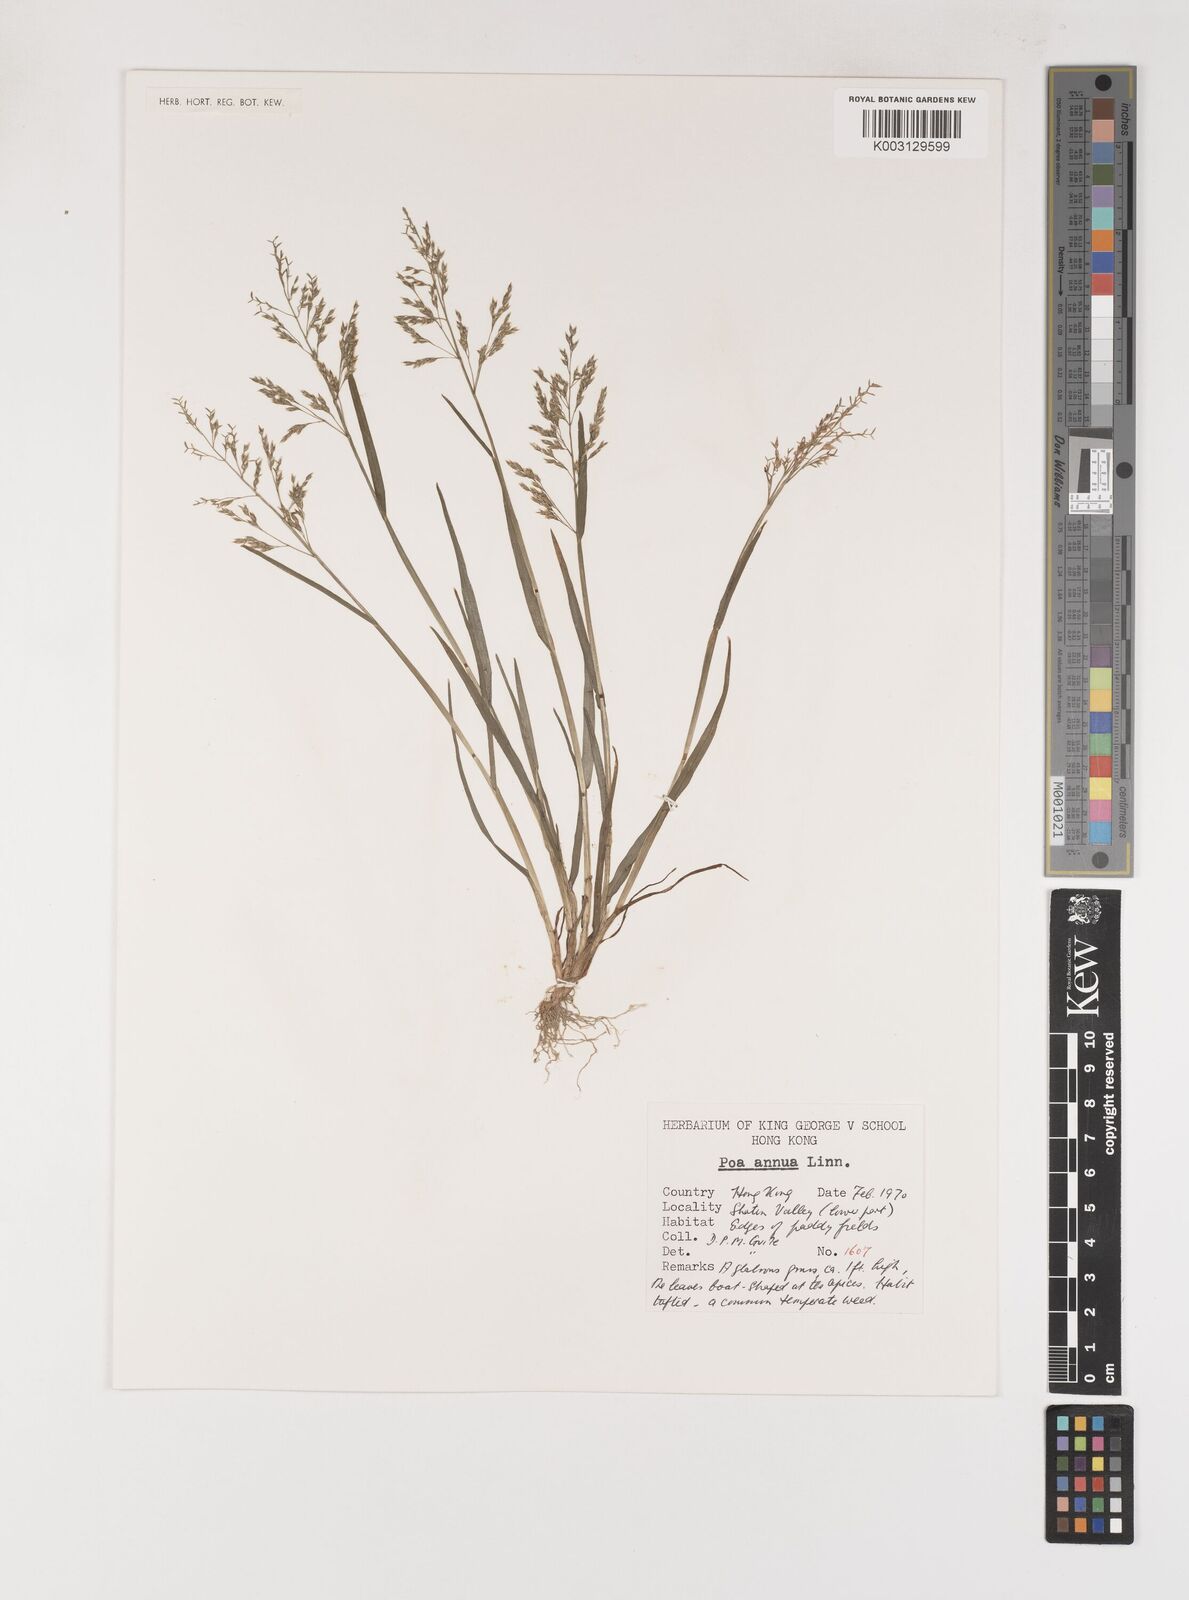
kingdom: Plantae
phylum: Tracheophyta
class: Liliopsida
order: Poales
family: Poaceae
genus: Poa
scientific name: Poa annua
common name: Annual bluegrass
